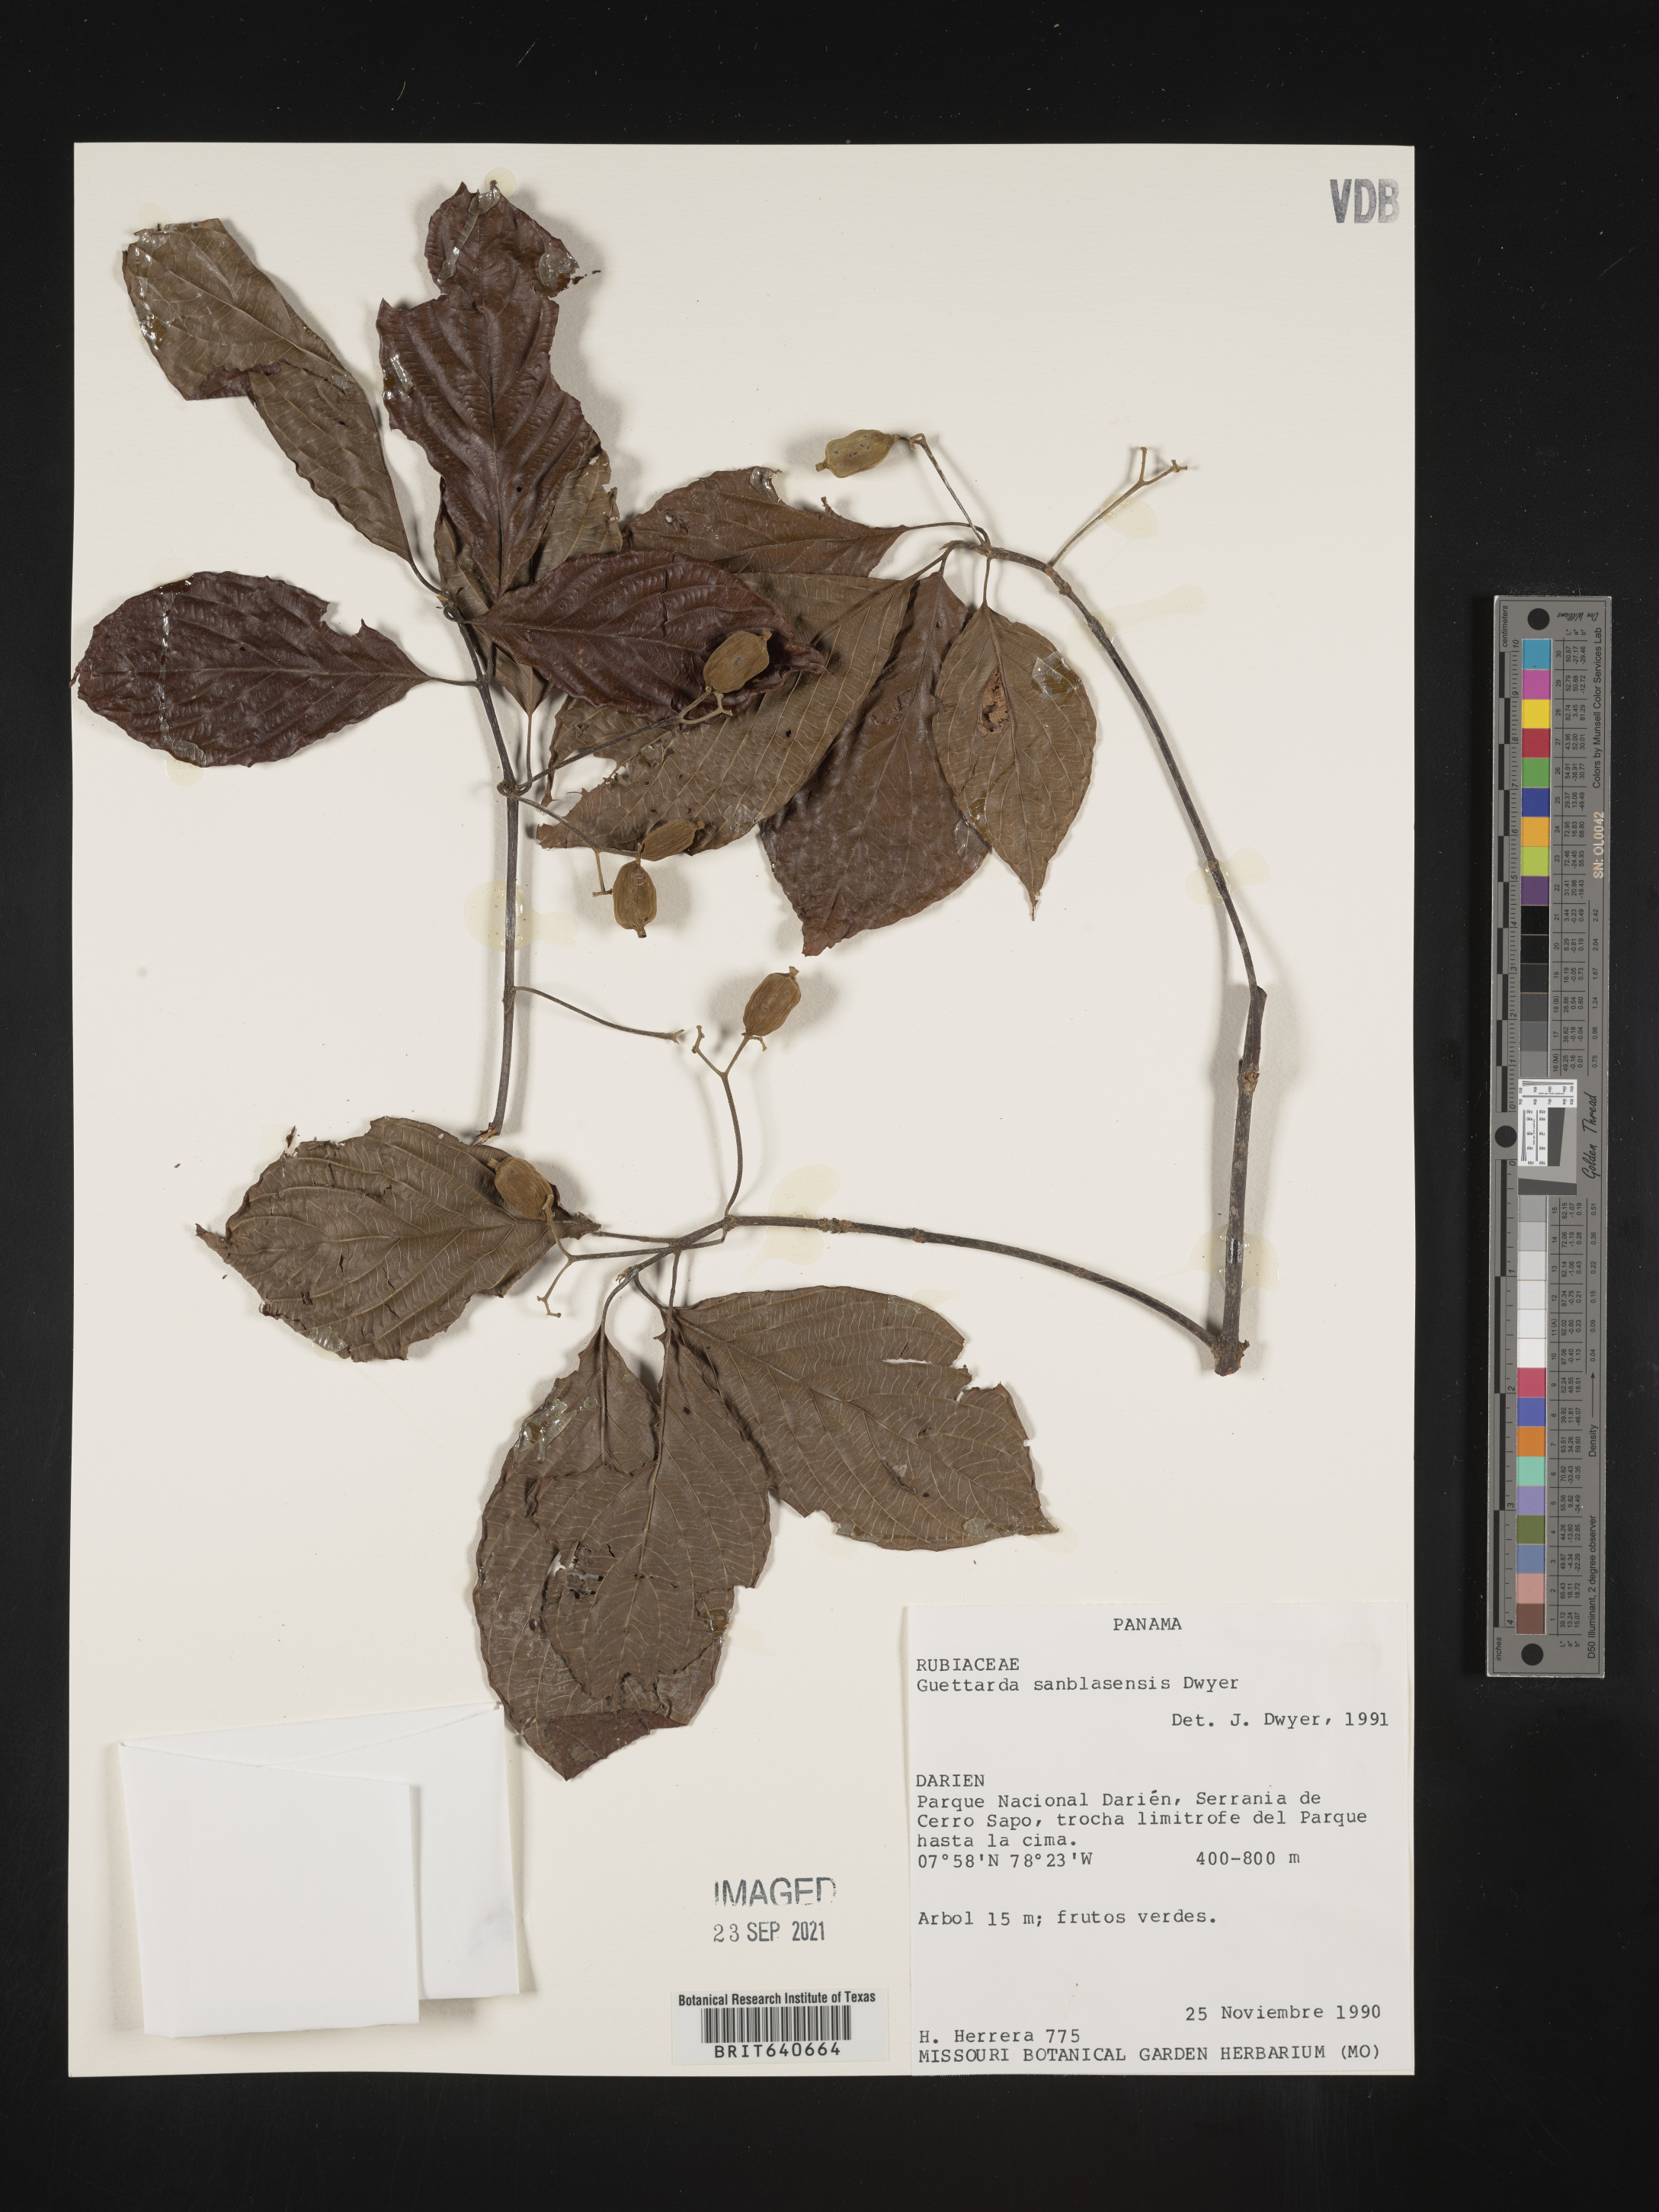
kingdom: Plantae
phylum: Tracheophyta
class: Magnoliopsida
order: Gentianales
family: Rubiaceae
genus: Guettarda
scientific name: Guettarda
